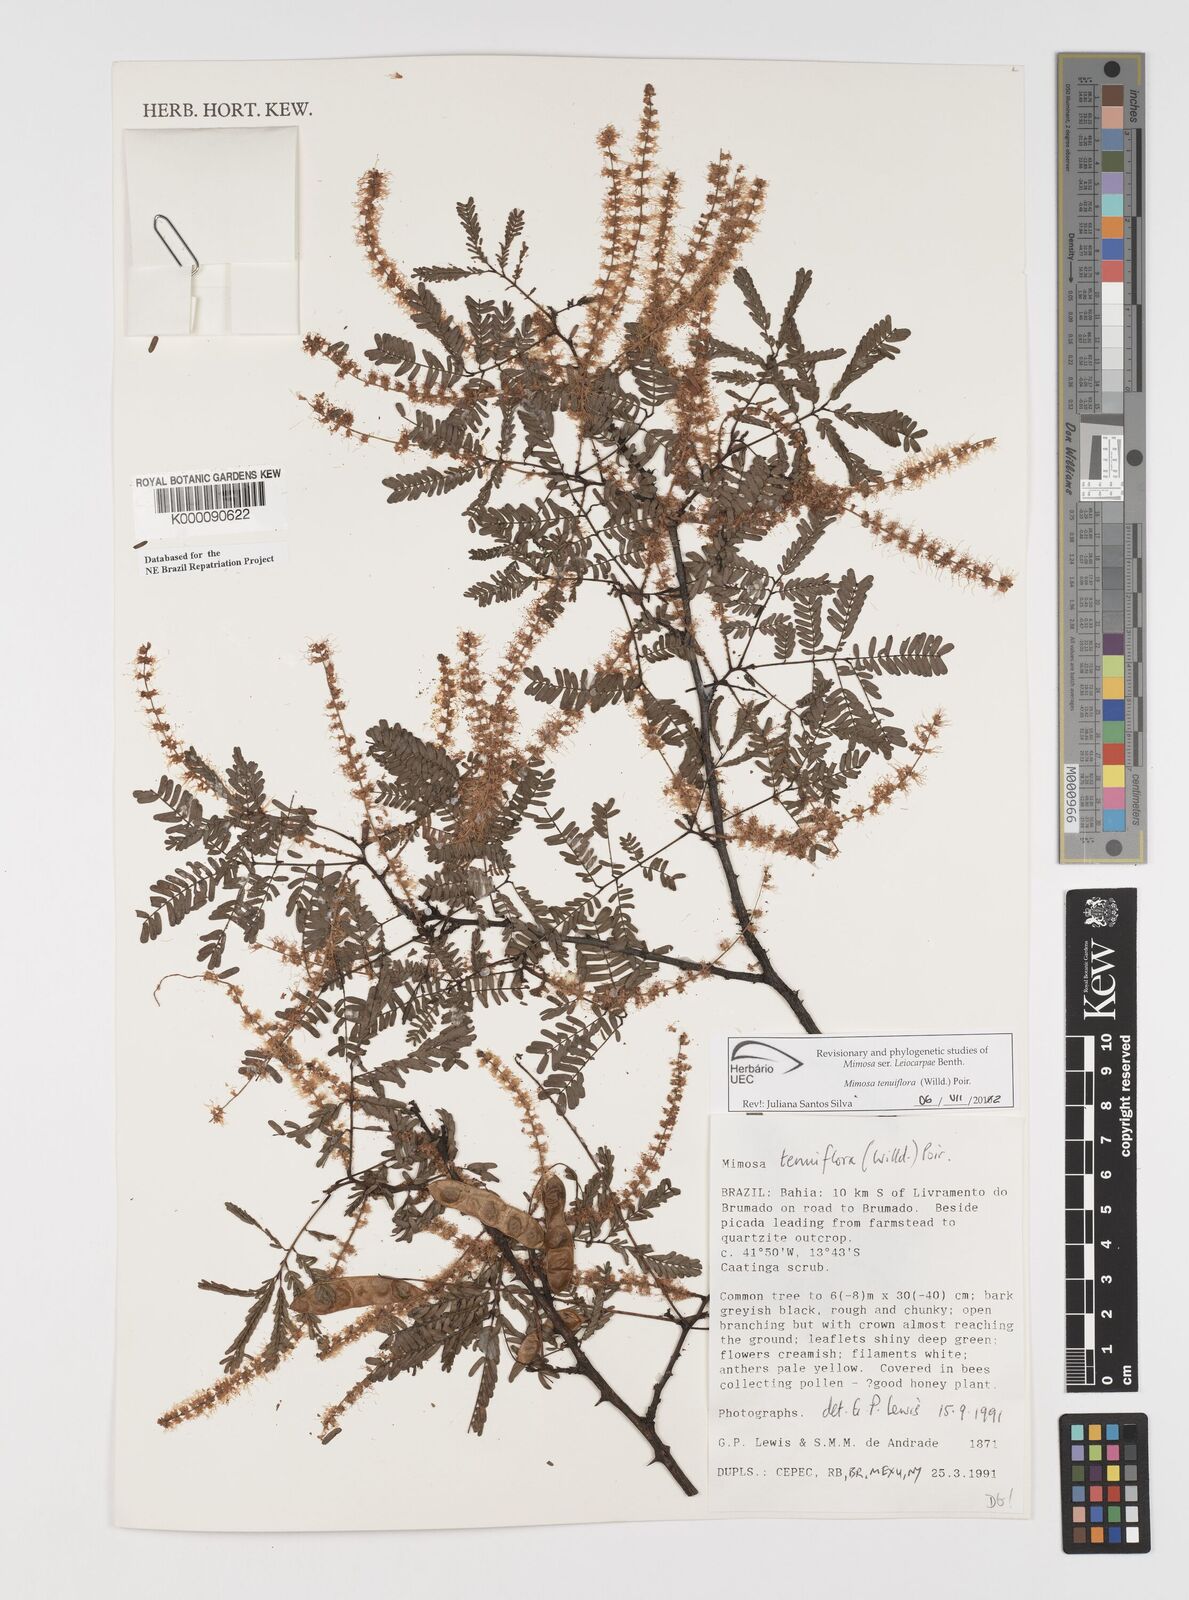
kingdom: Plantae
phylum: Tracheophyta
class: Magnoliopsida
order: Fabales
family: Fabaceae
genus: Mimosa
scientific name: Mimosa tenuiflora
